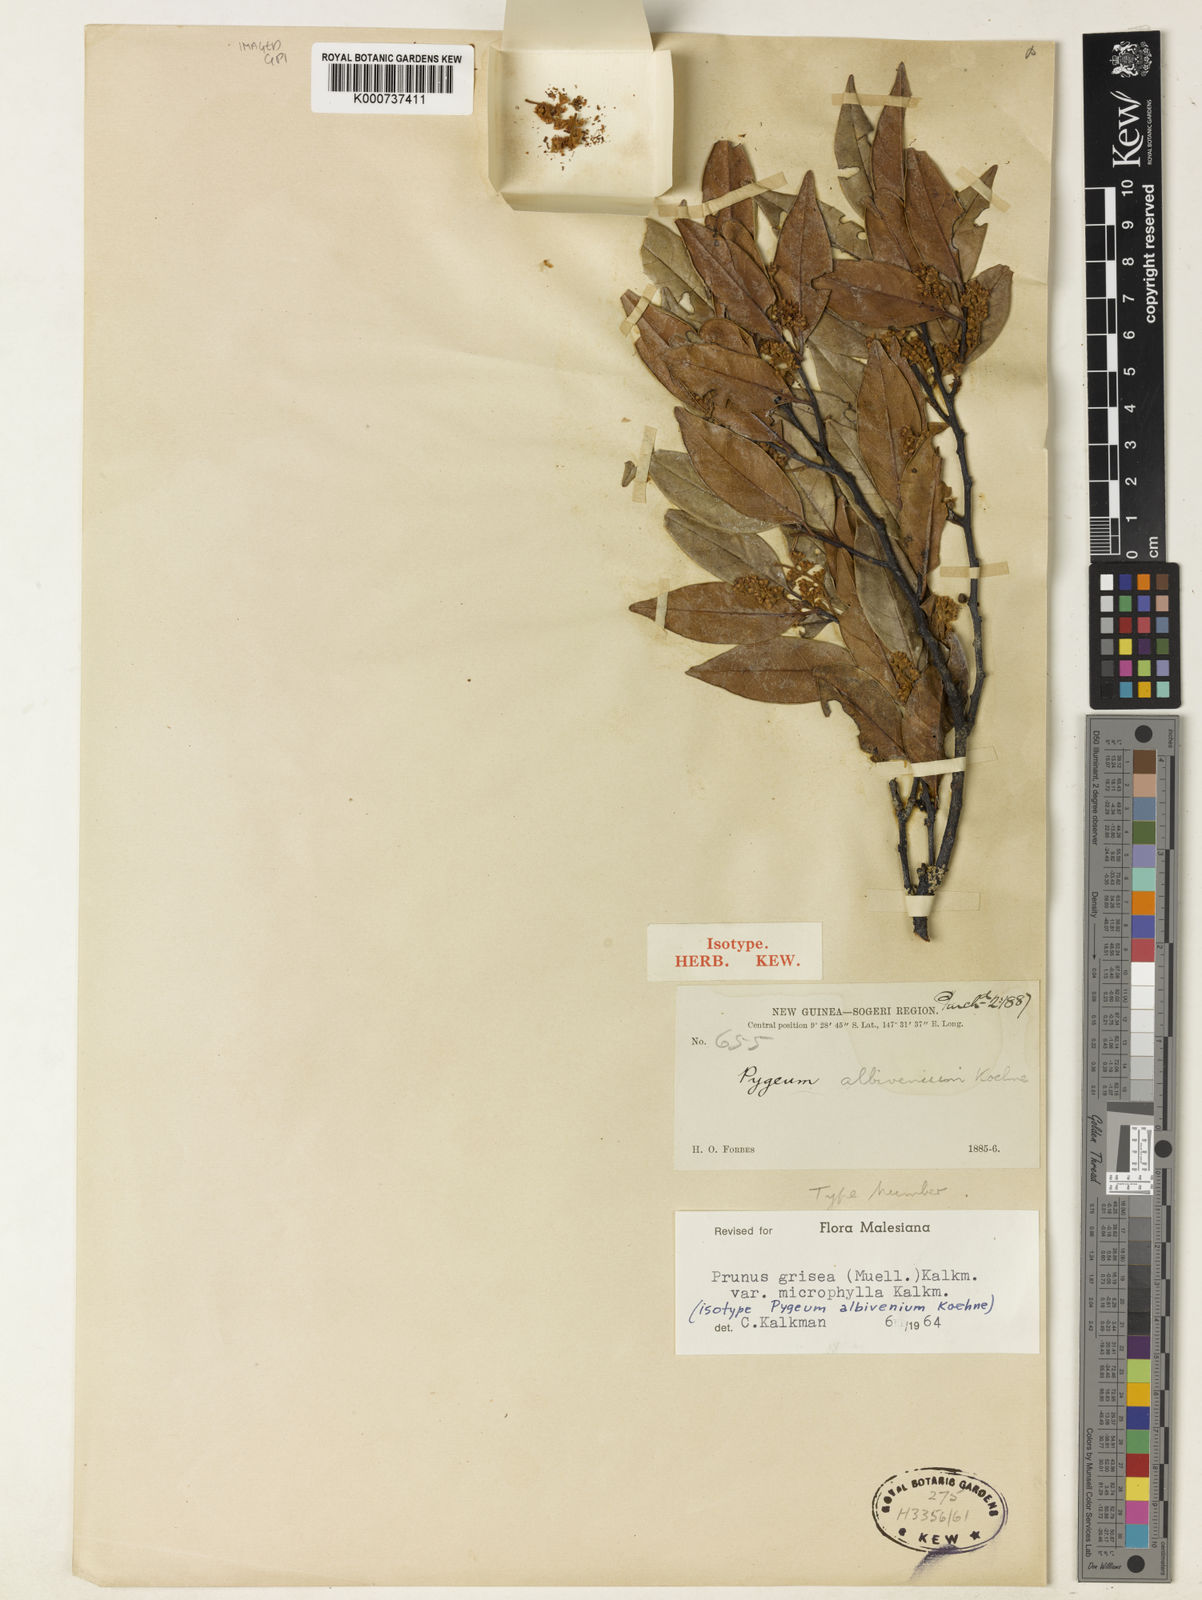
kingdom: Plantae
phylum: Tracheophyta
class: Magnoliopsida
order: Rosales
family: Rosaceae
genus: Prunus
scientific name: Prunus
